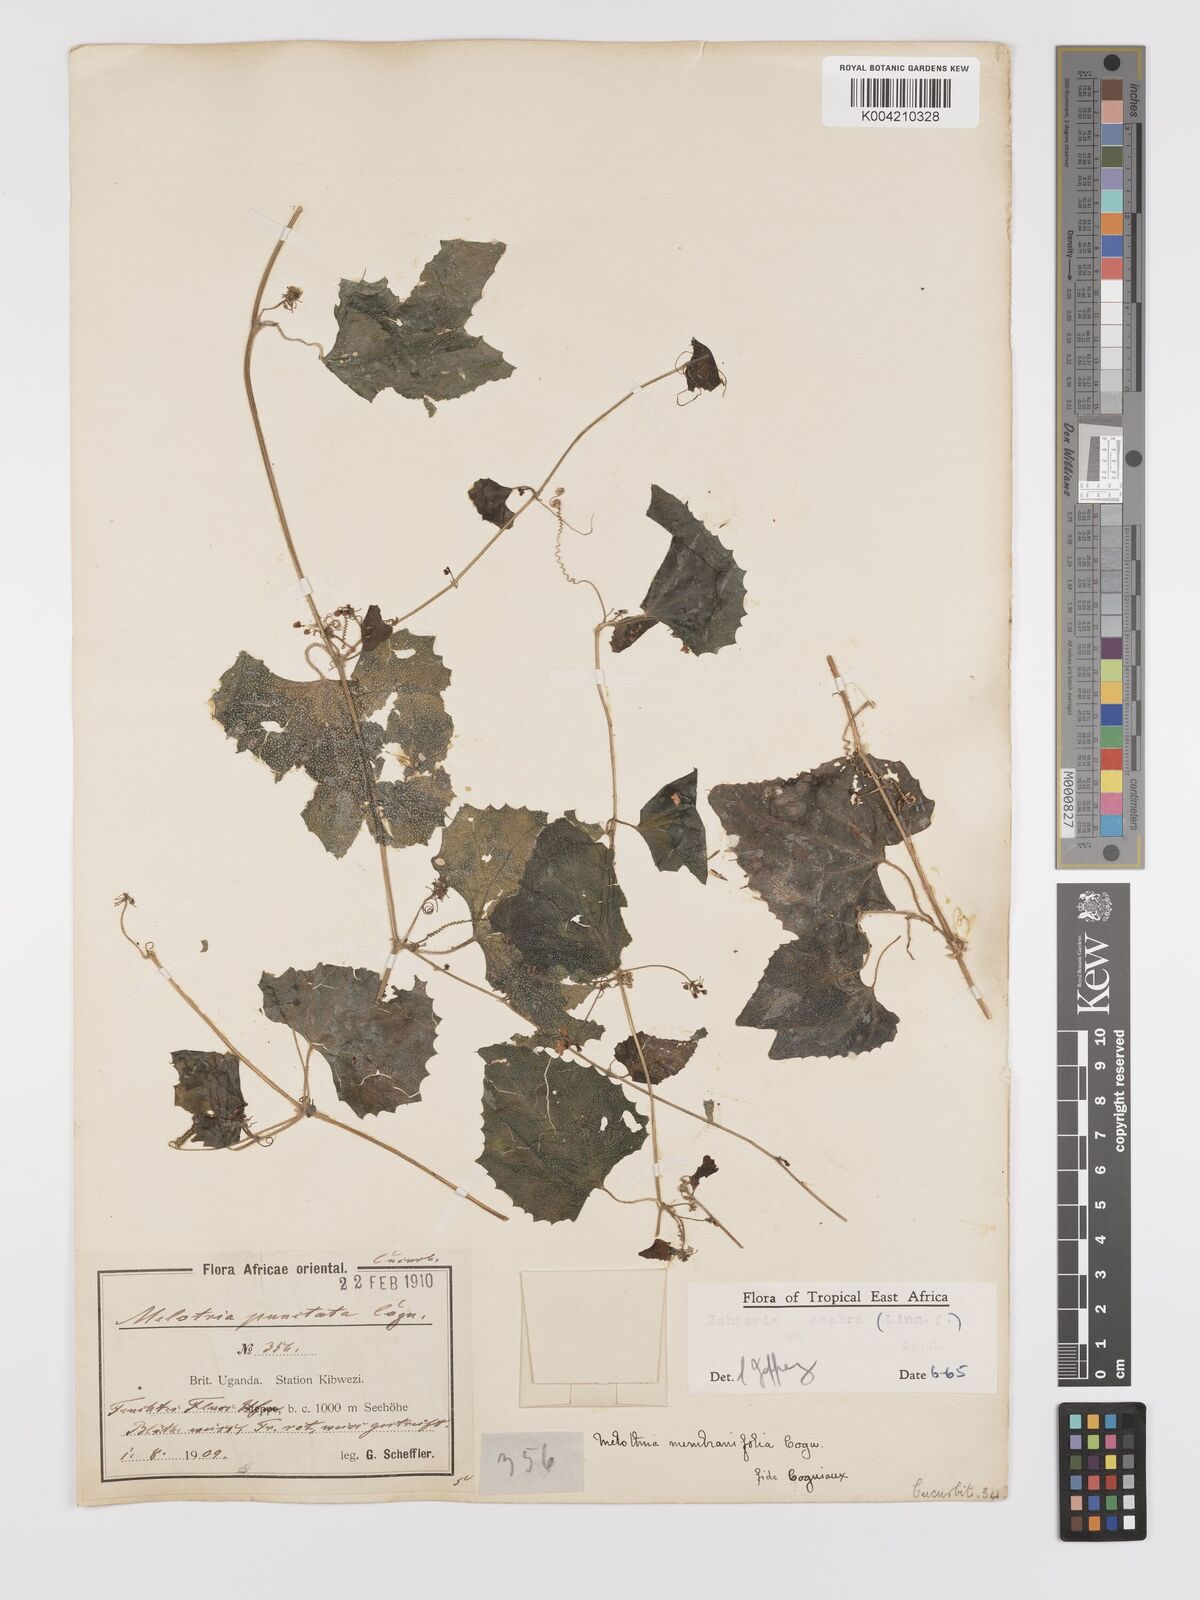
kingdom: Plantae
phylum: Tracheophyta
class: Magnoliopsida
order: Cucurbitales
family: Cucurbitaceae
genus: Zehneria
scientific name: Zehneria scabra
